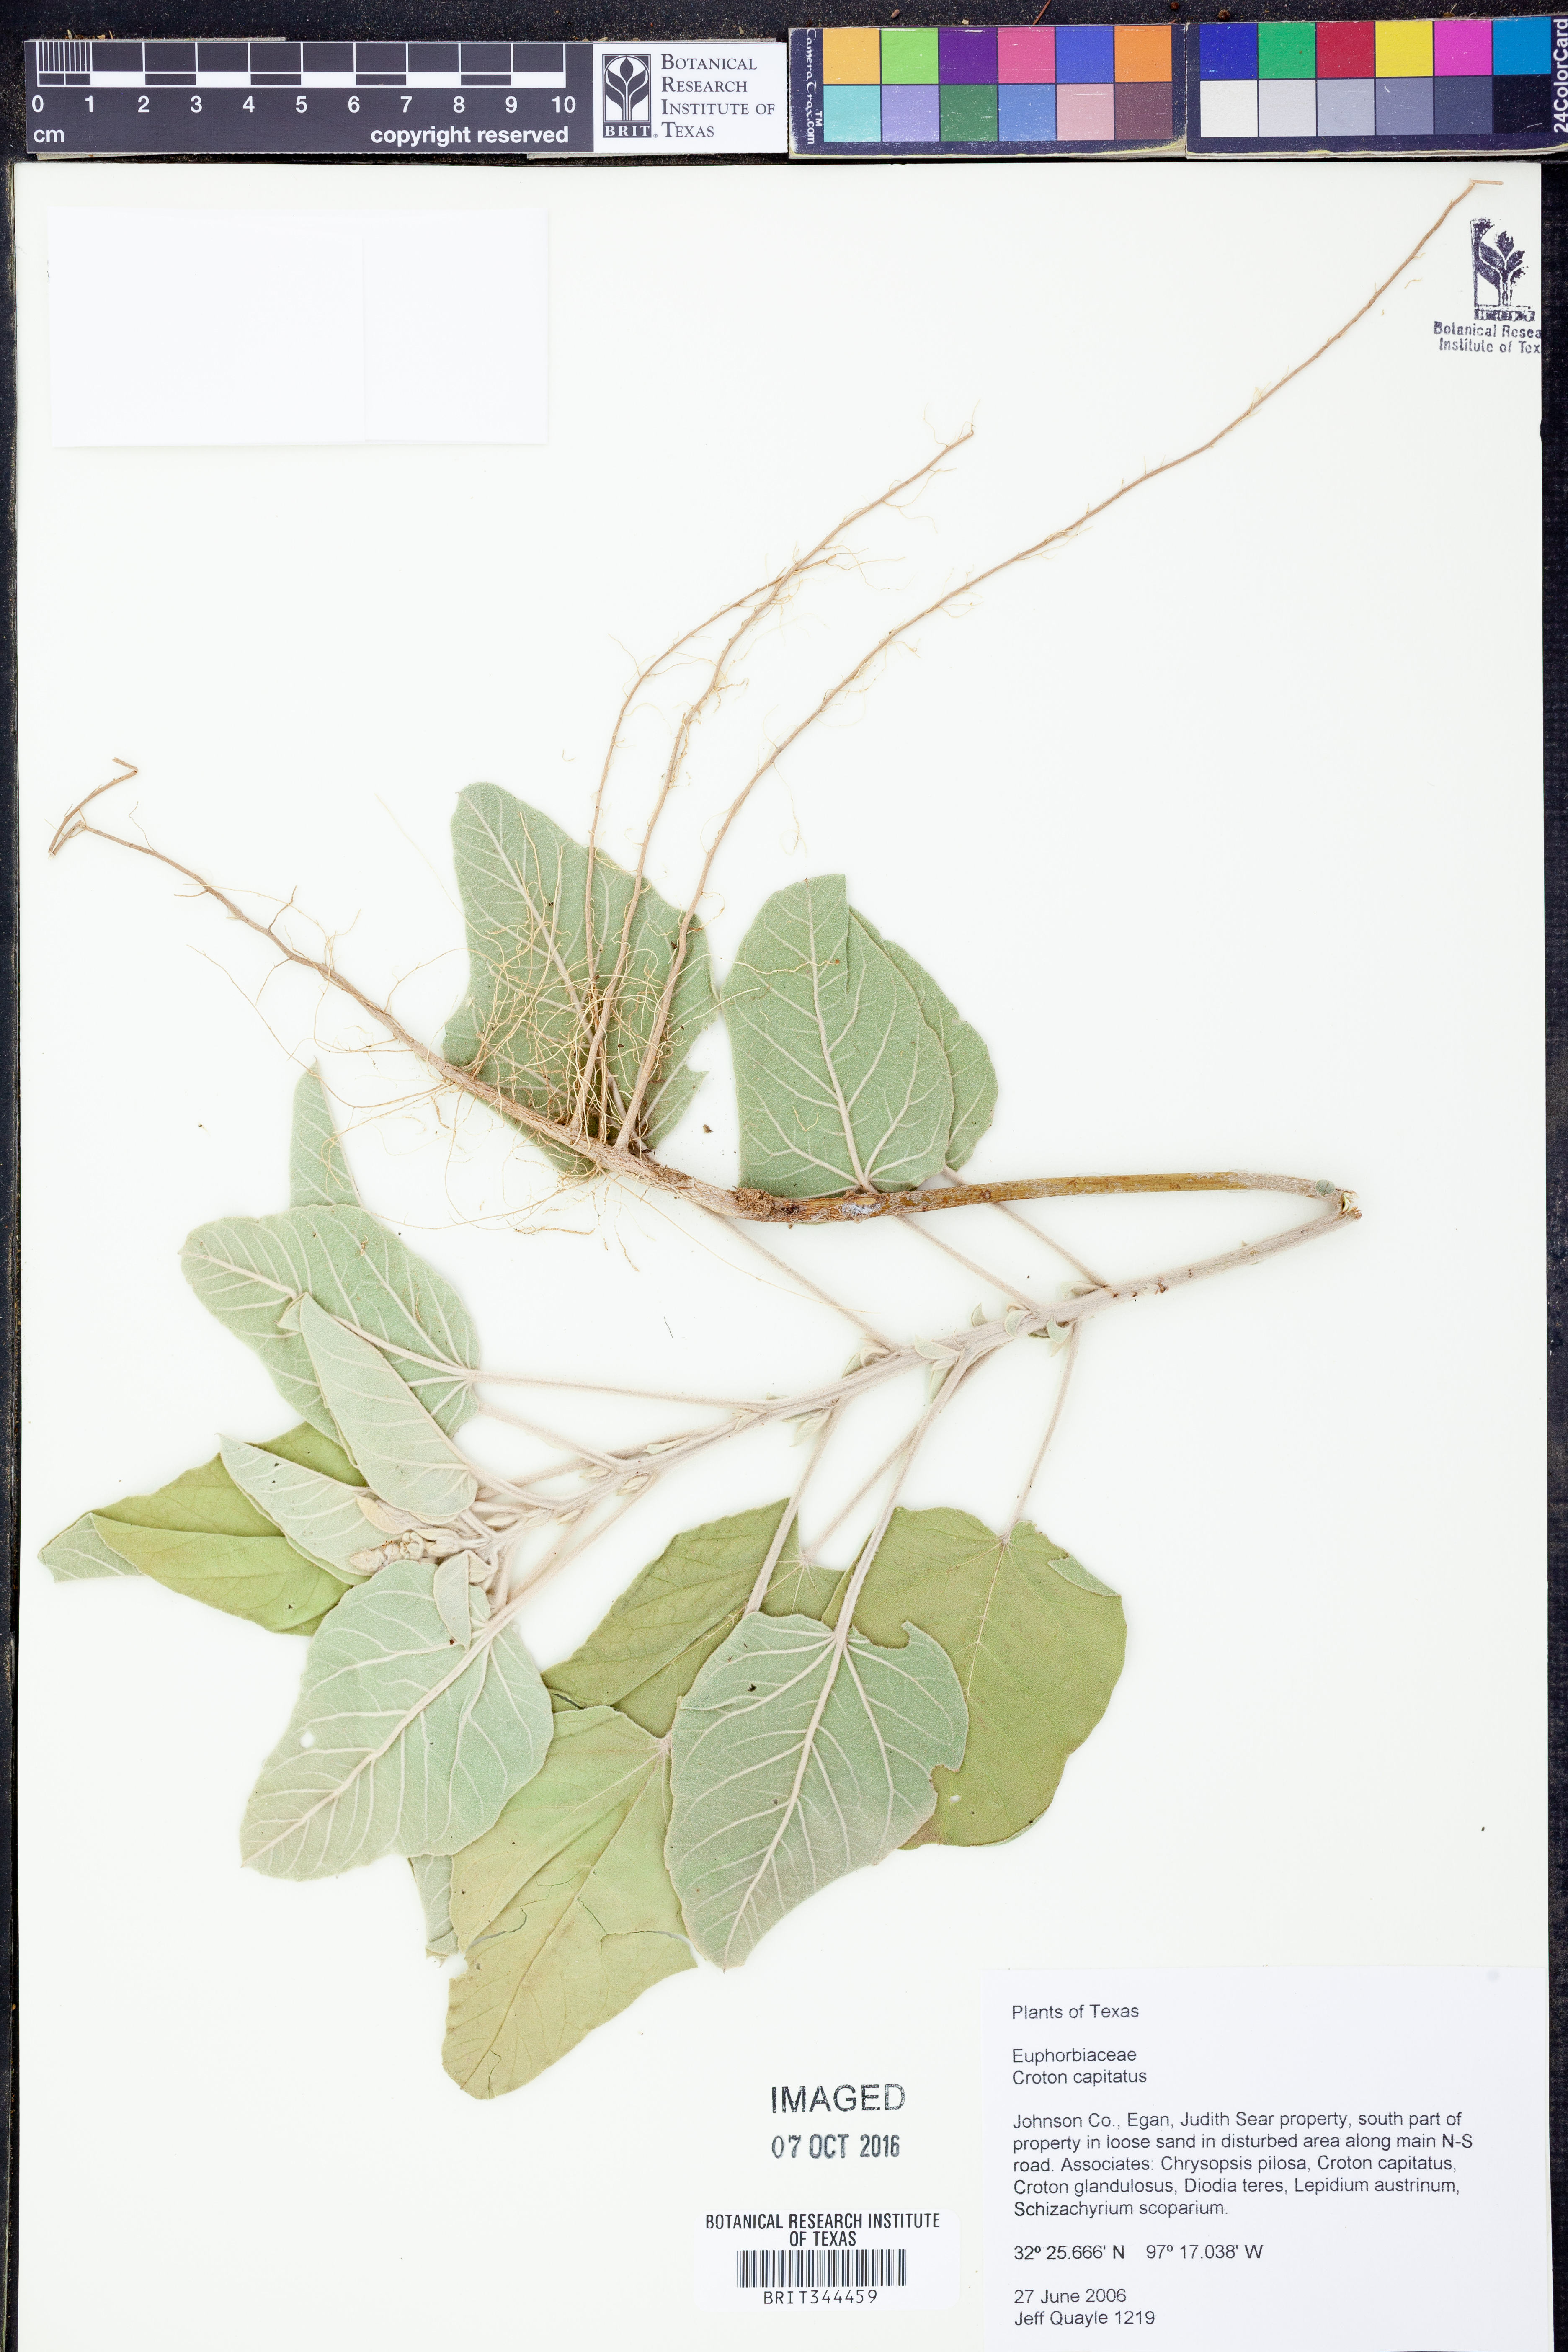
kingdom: Plantae
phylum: Tracheophyta
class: Magnoliopsida
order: Malpighiales
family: Euphorbiaceae
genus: Croton
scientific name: Croton capitatus
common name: Woolly croton
